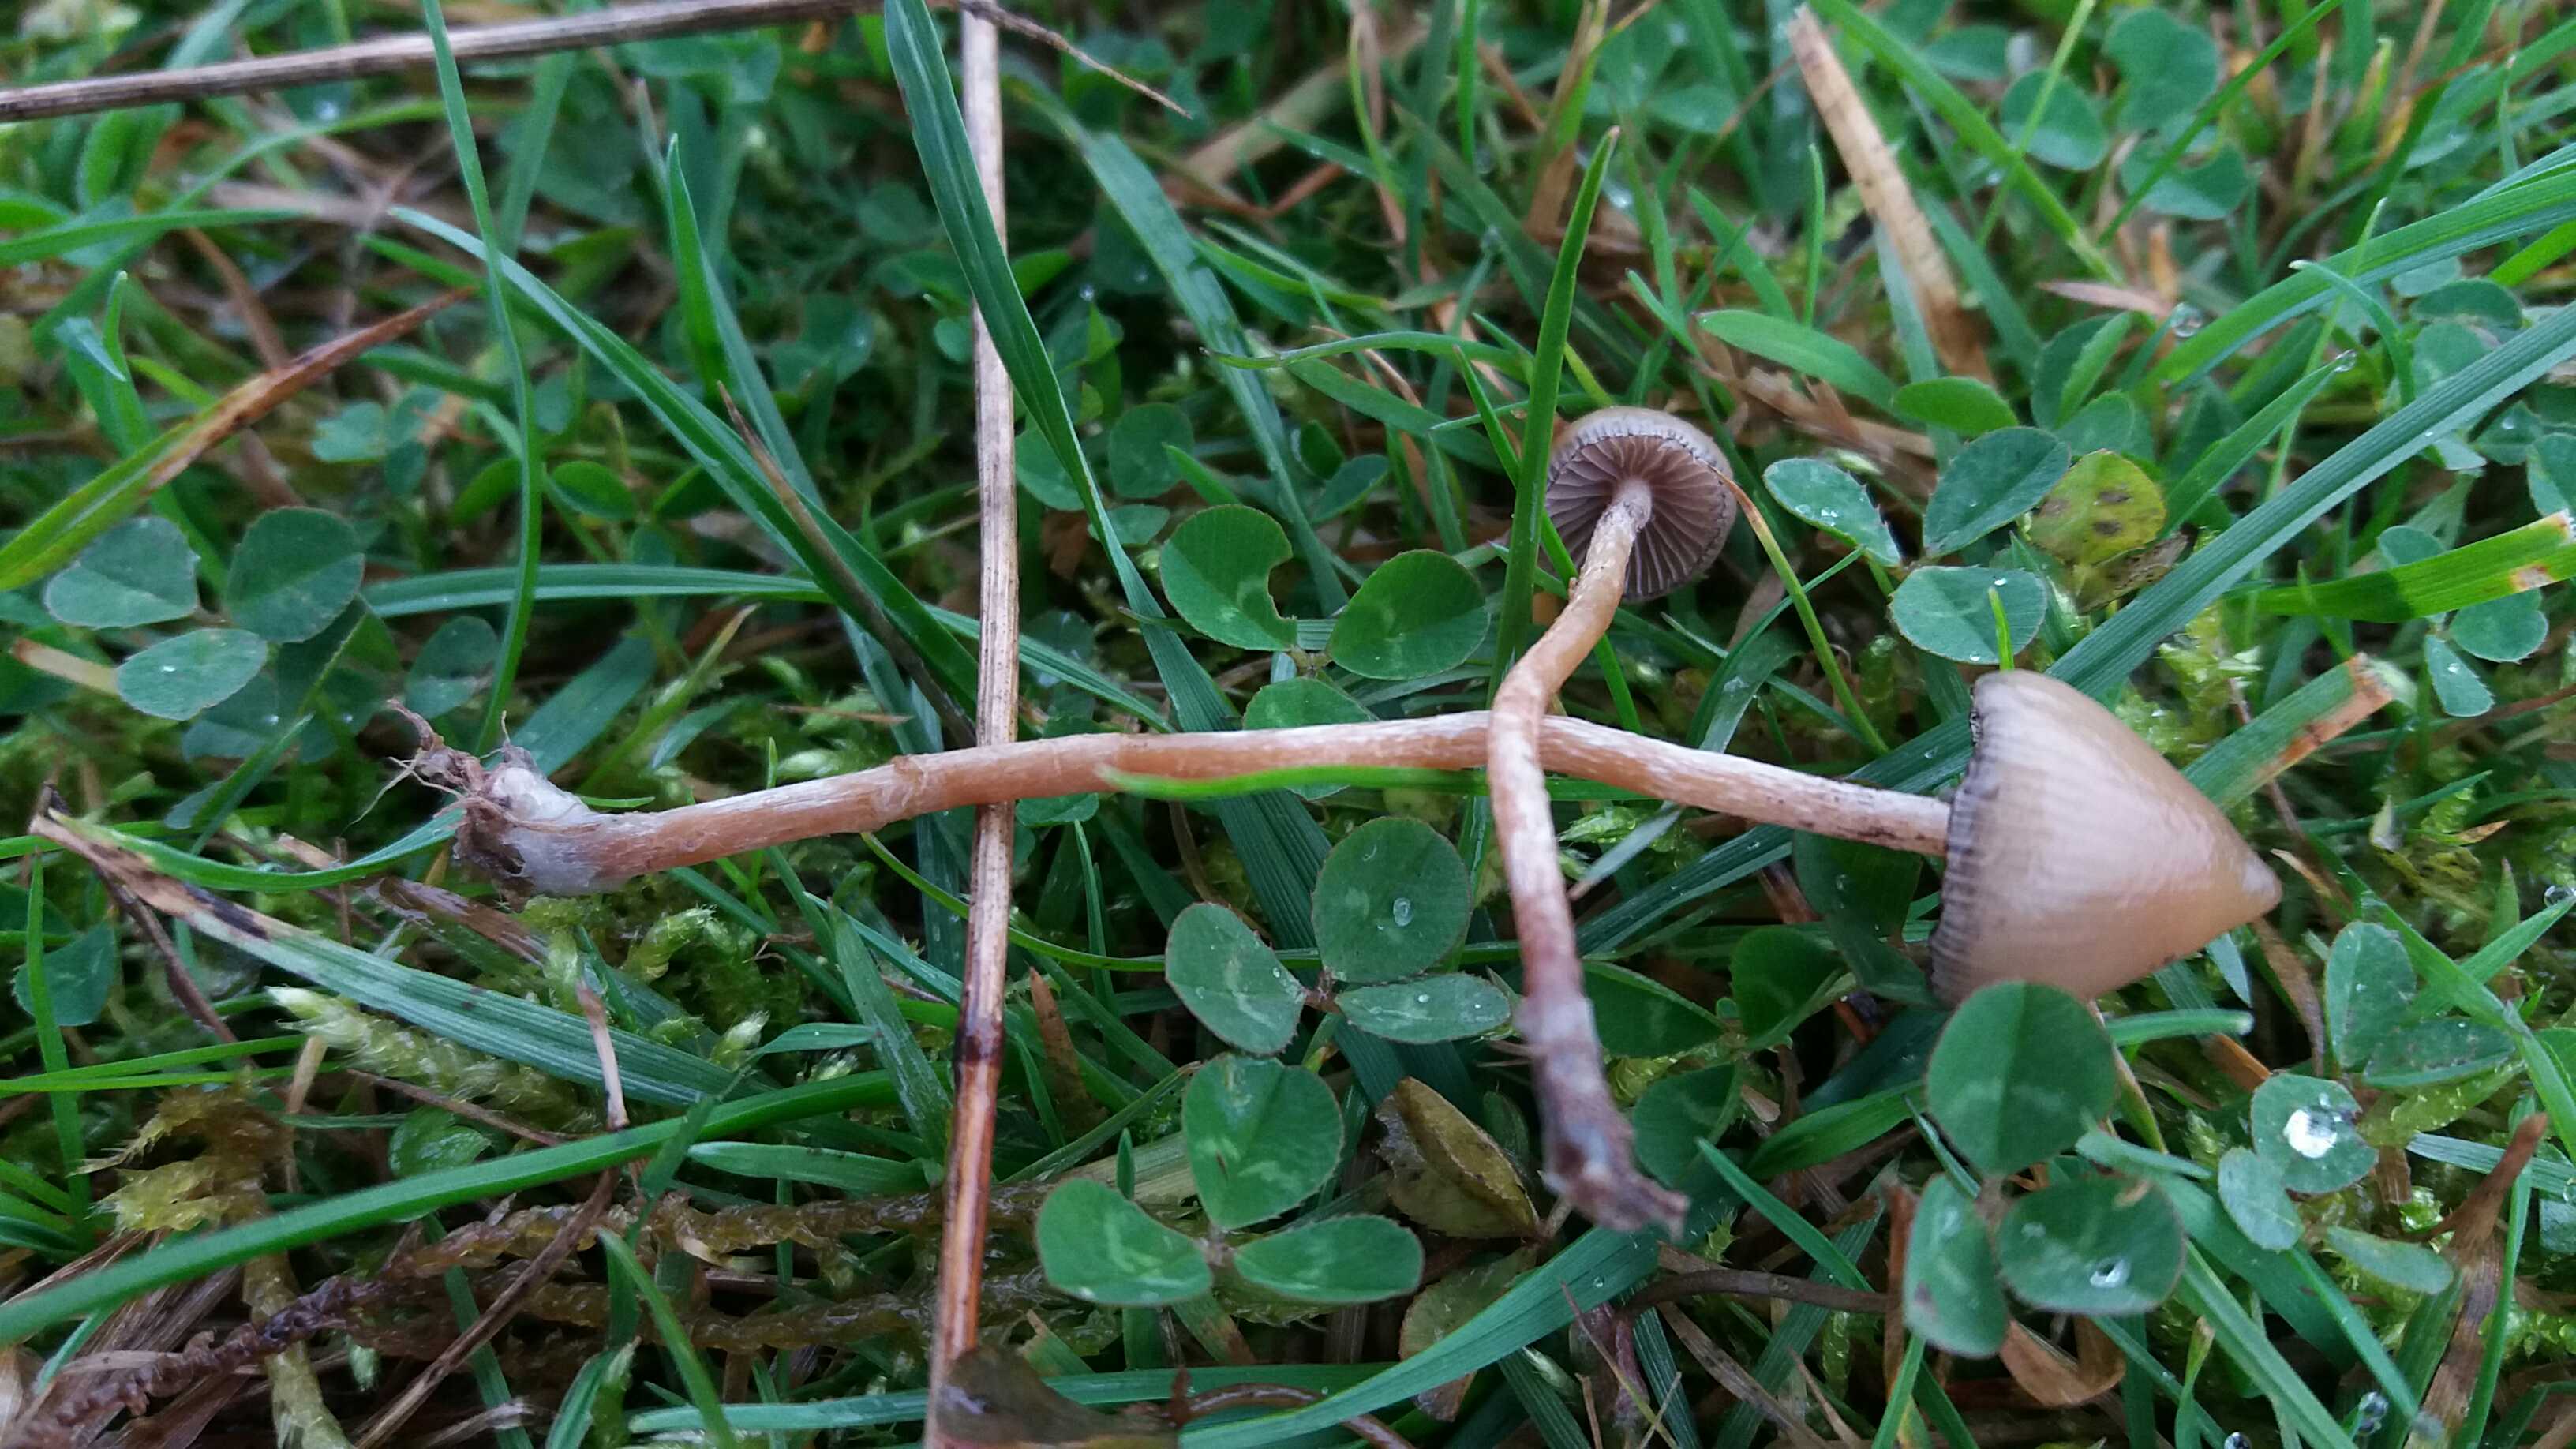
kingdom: Fungi
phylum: Basidiomycota
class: Agaricomycetes
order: Agaricales
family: Hymenogastraceae
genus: Psilocybe
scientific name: Psilocybe semilanceata
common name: spids nøgenhat
